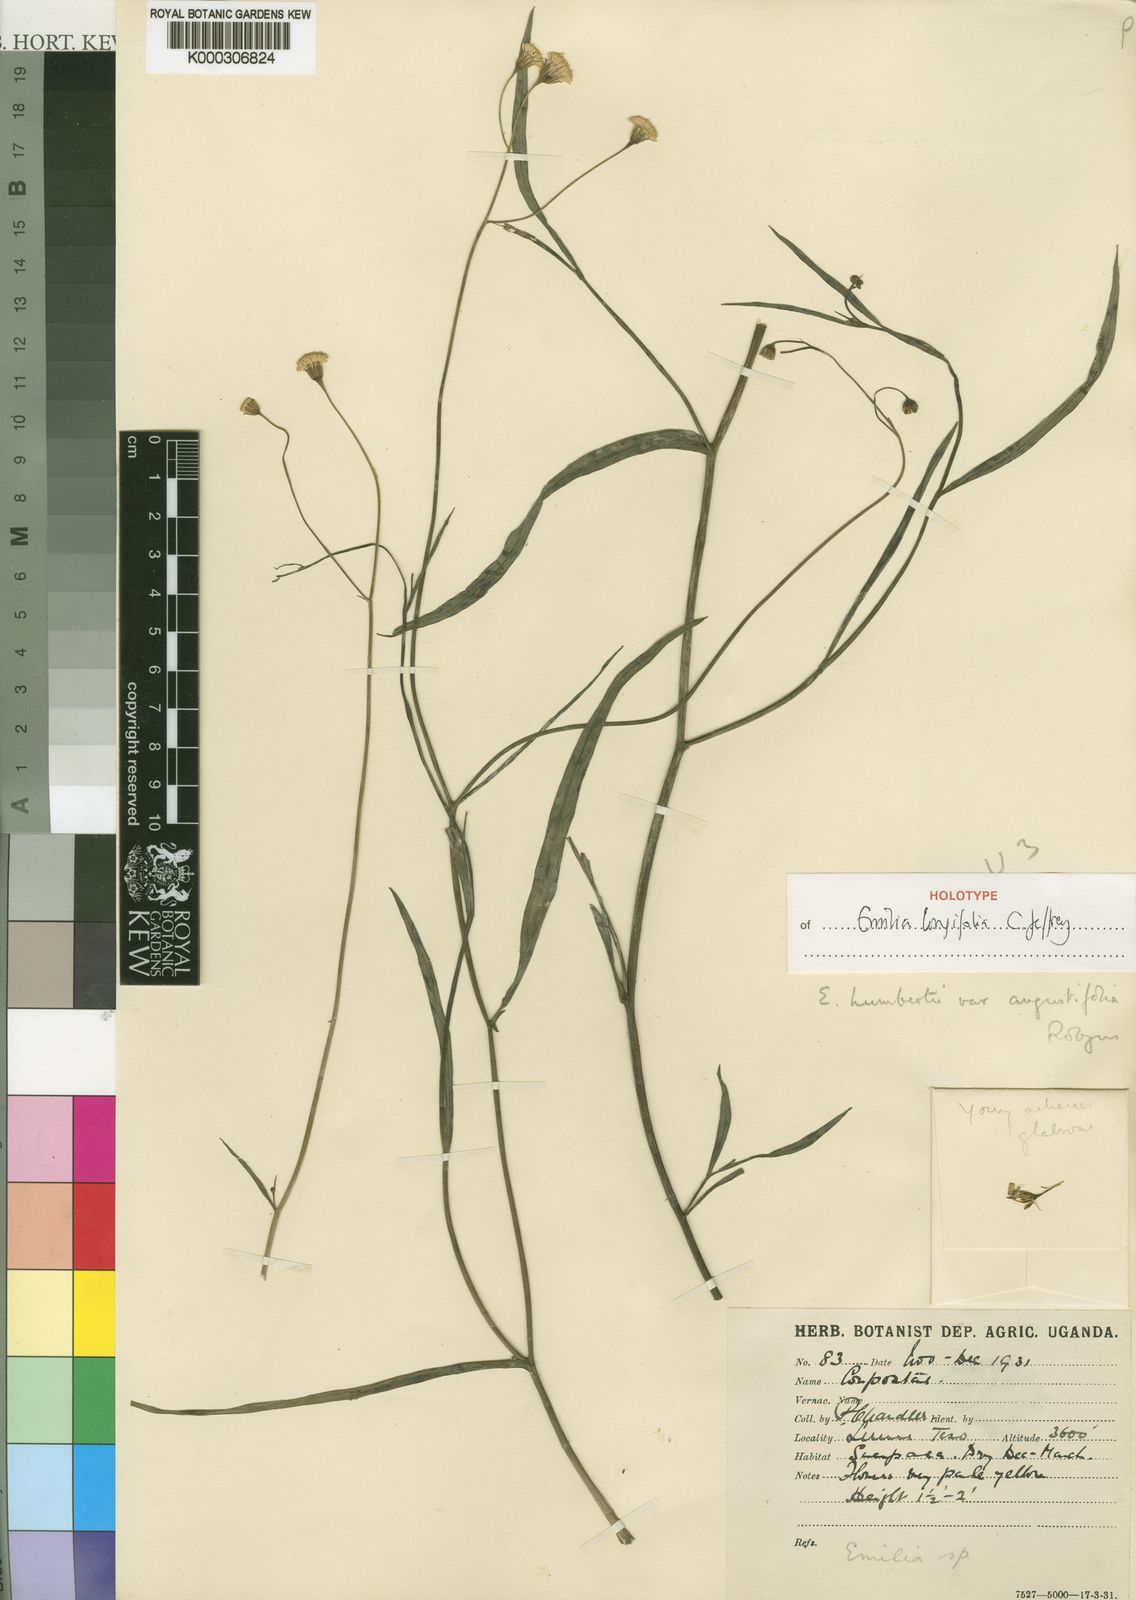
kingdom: Plantae
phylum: Tracheophyta
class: Magnoliopsida
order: Asterales
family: Asteraceae
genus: Emilia
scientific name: Emilia longifolia
